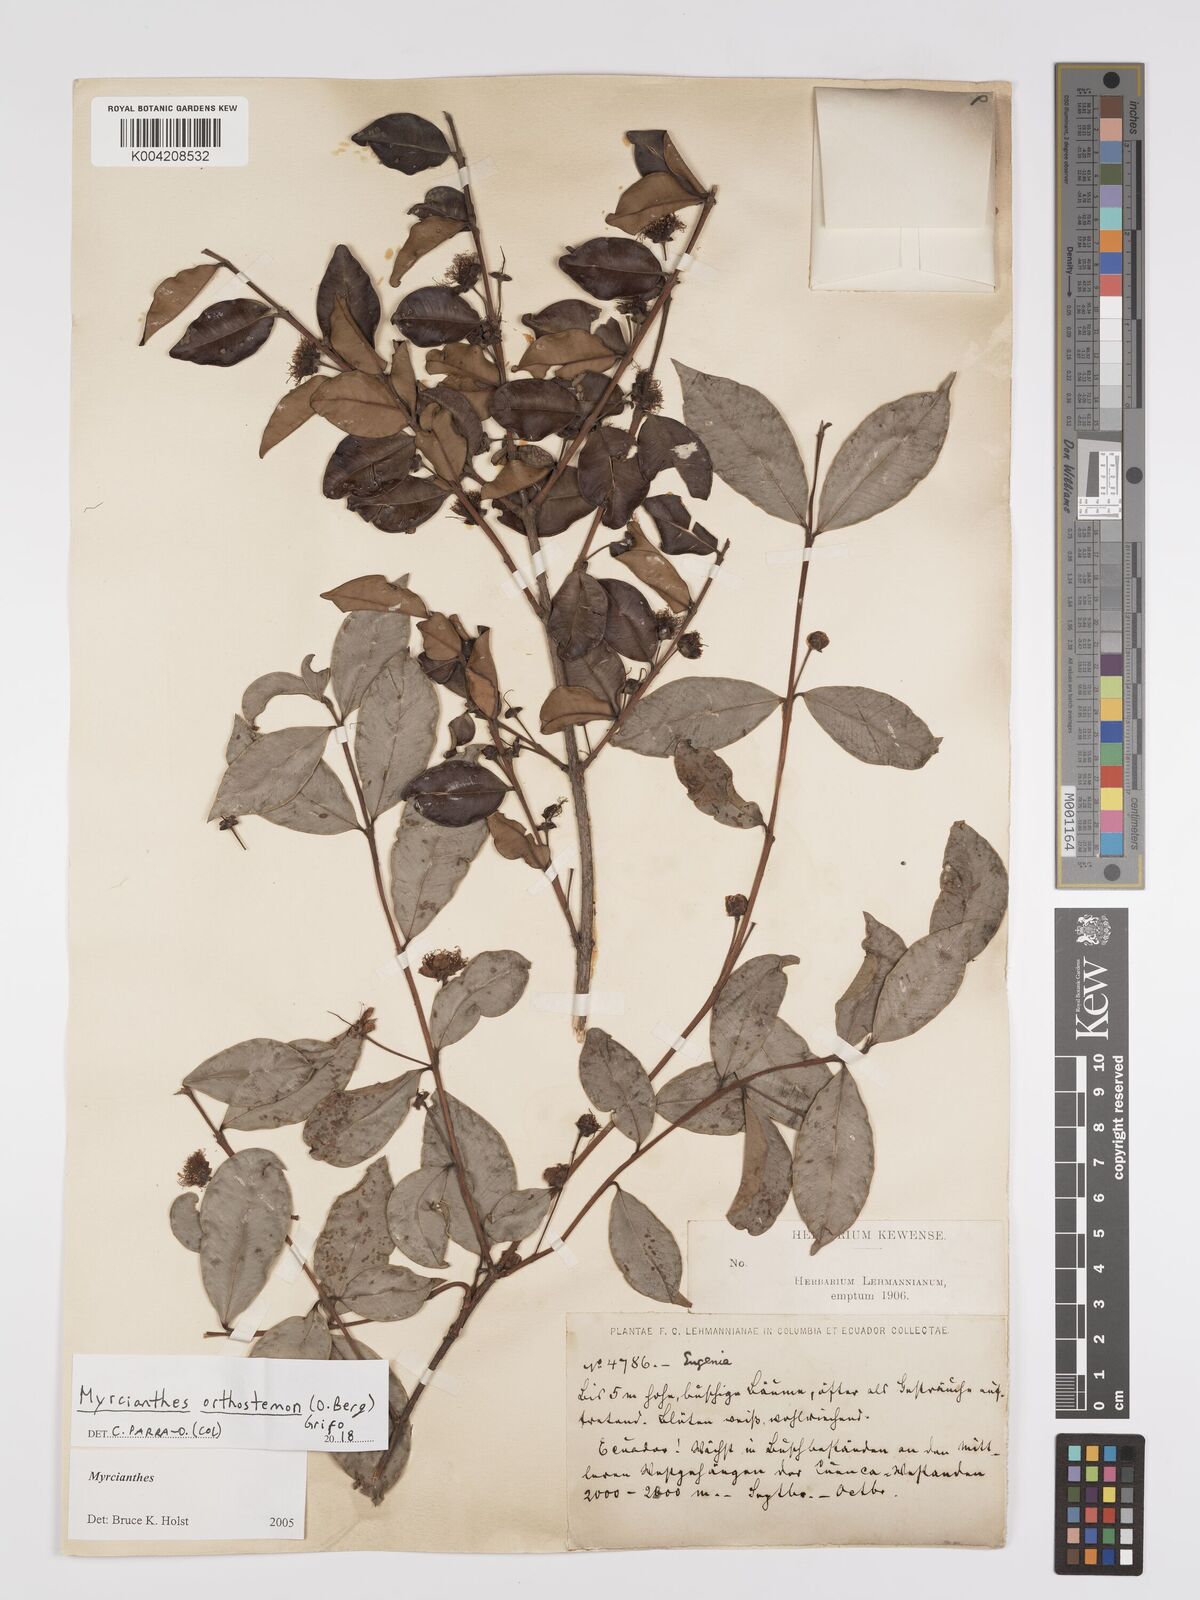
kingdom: Plantae
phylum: Tracheophyta
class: Magnoliopsida
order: Myrtales
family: Myrtaceae
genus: Myrcianthes
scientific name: Myrcianthes orthostemon
